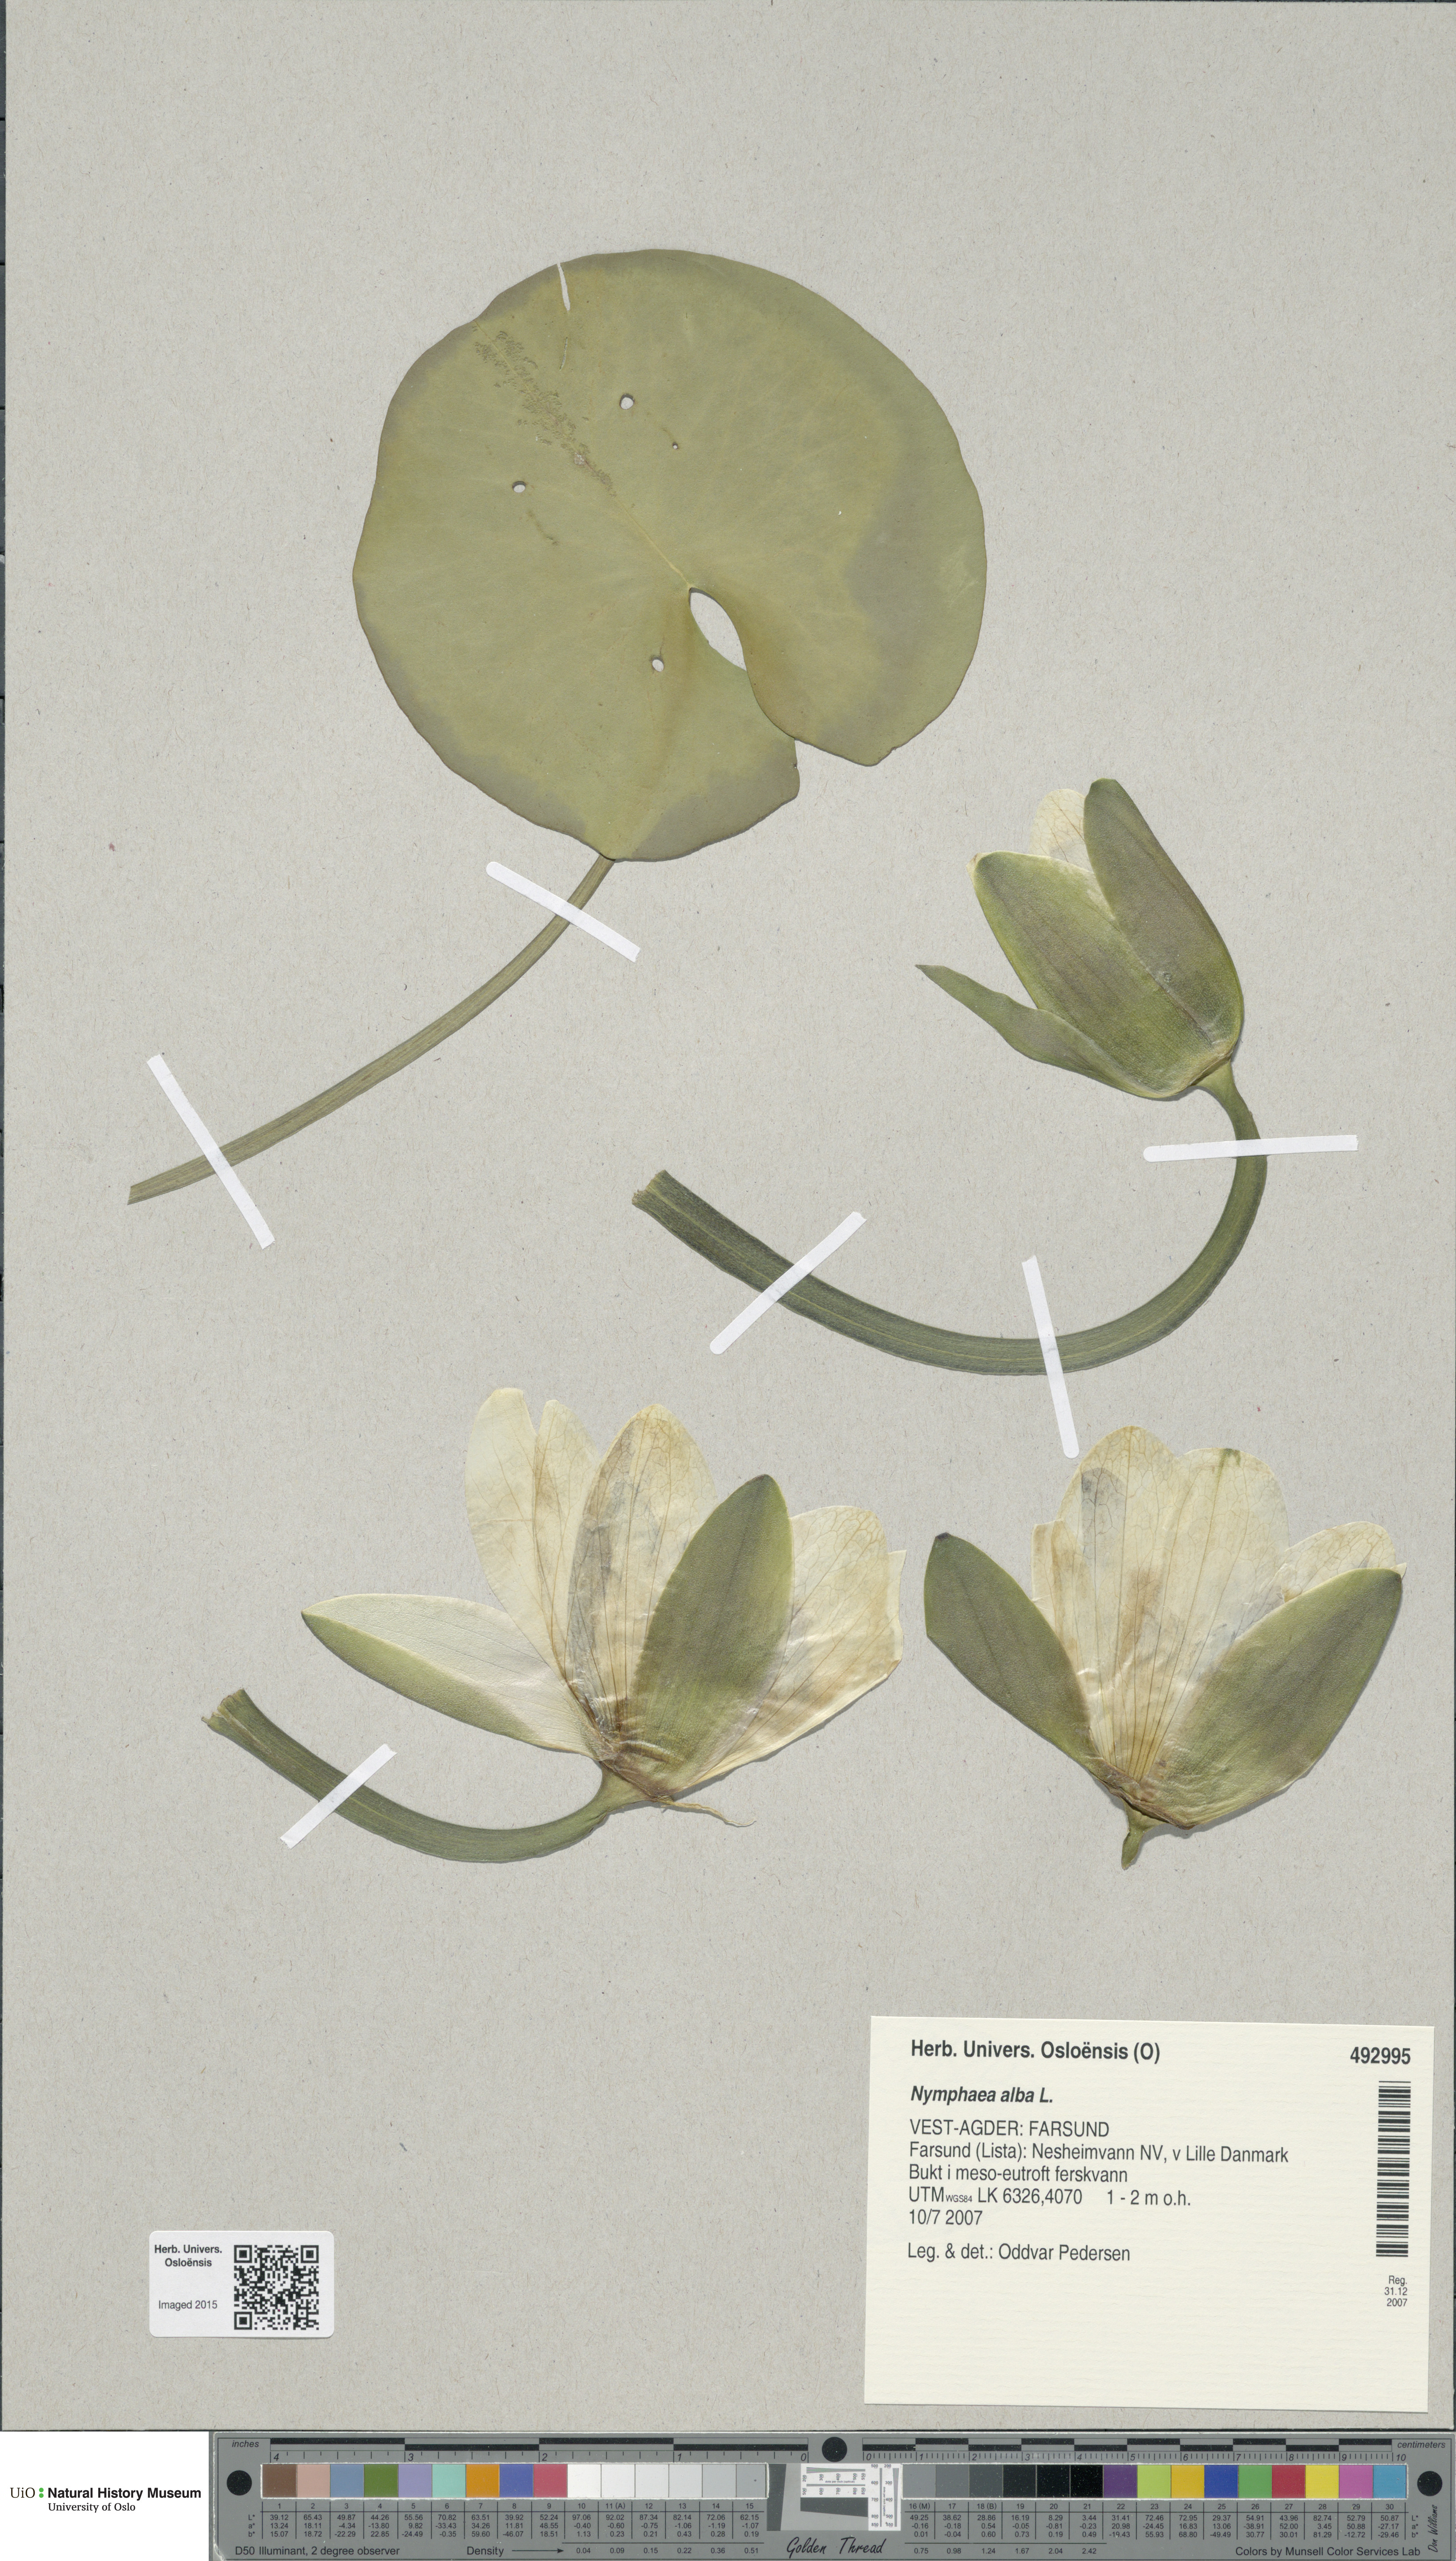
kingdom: Plantae
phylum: Tracheophyta
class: Magnoliopsida
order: Nymphaeales
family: Nymphaeaceae
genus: Nymphaea
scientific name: Nymphaea alba
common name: White water-lily
